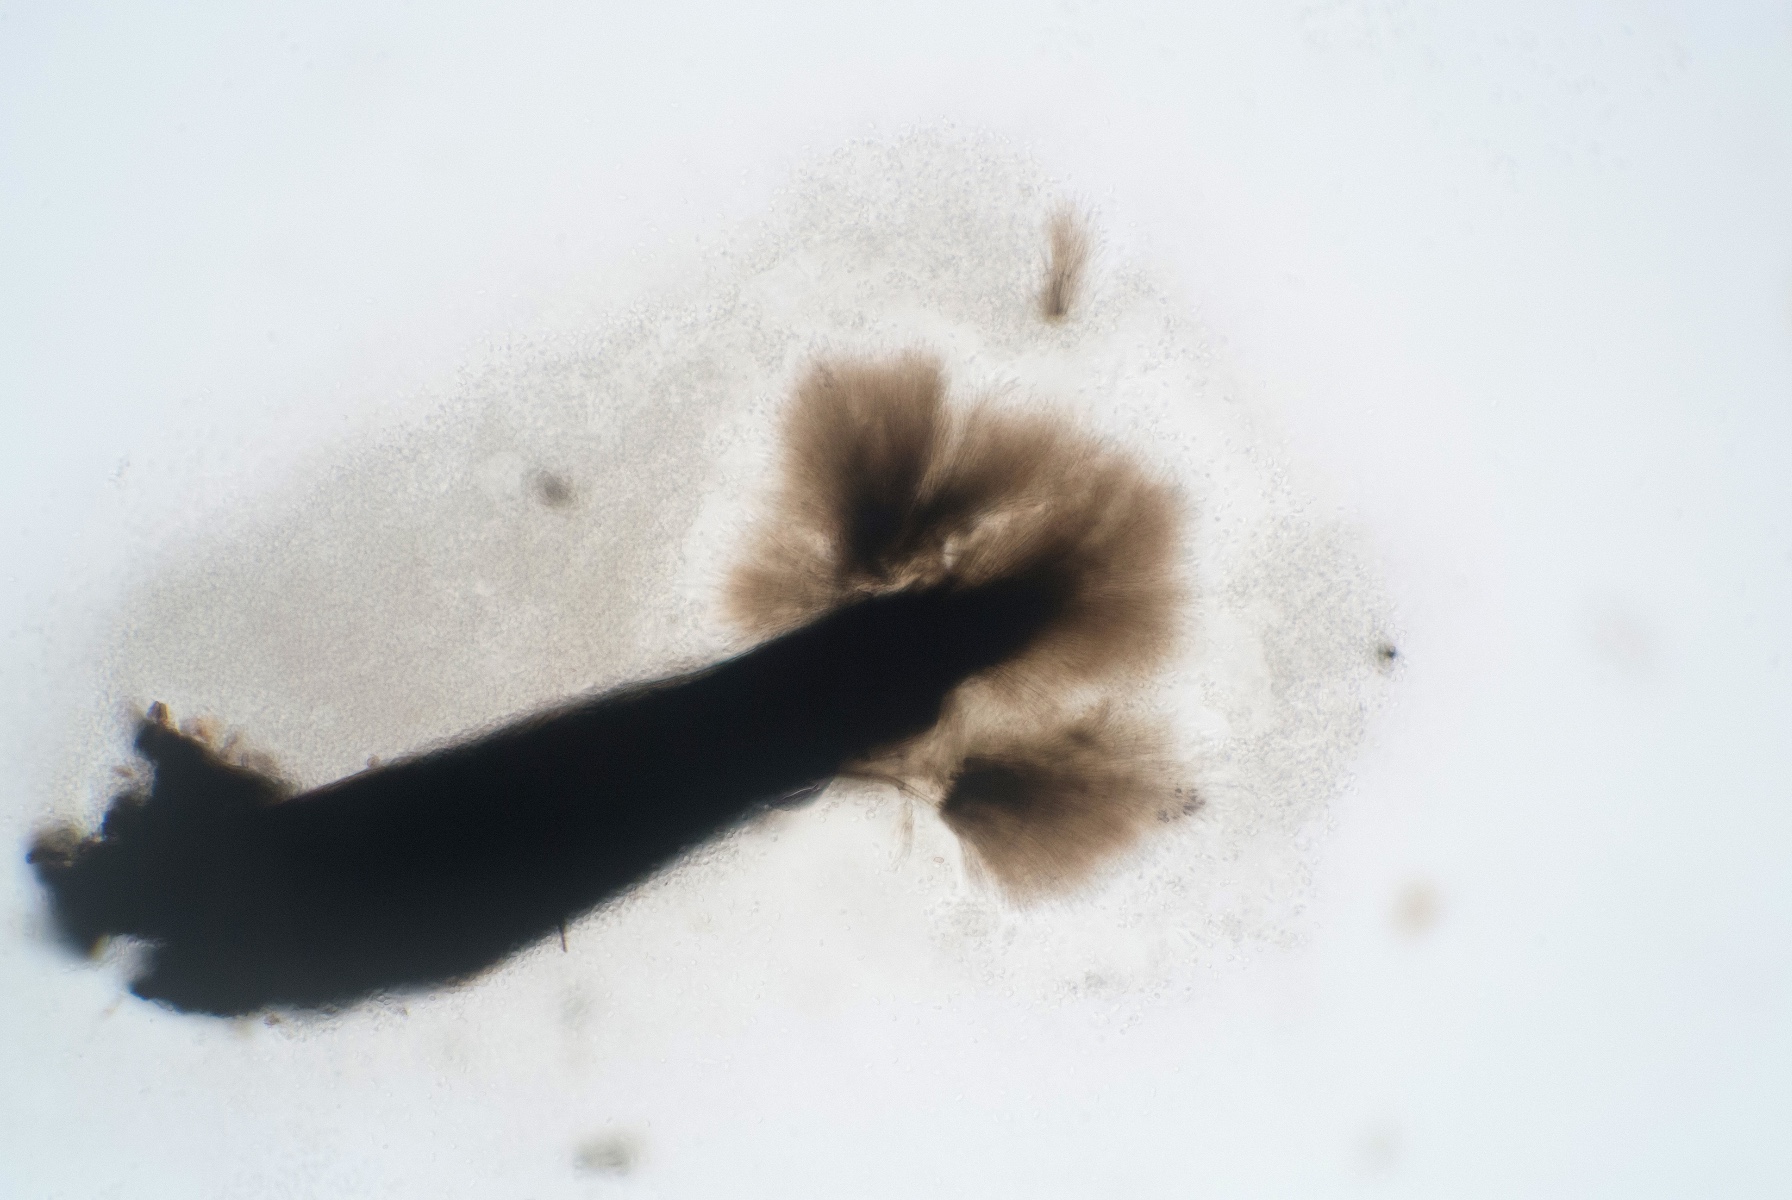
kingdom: Fungi
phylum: Ascomycota
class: Eurotiomycetes
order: Chaetothyriales
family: Herpotrichiellaceae
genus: Exophiala
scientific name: Exophiala calicioides
